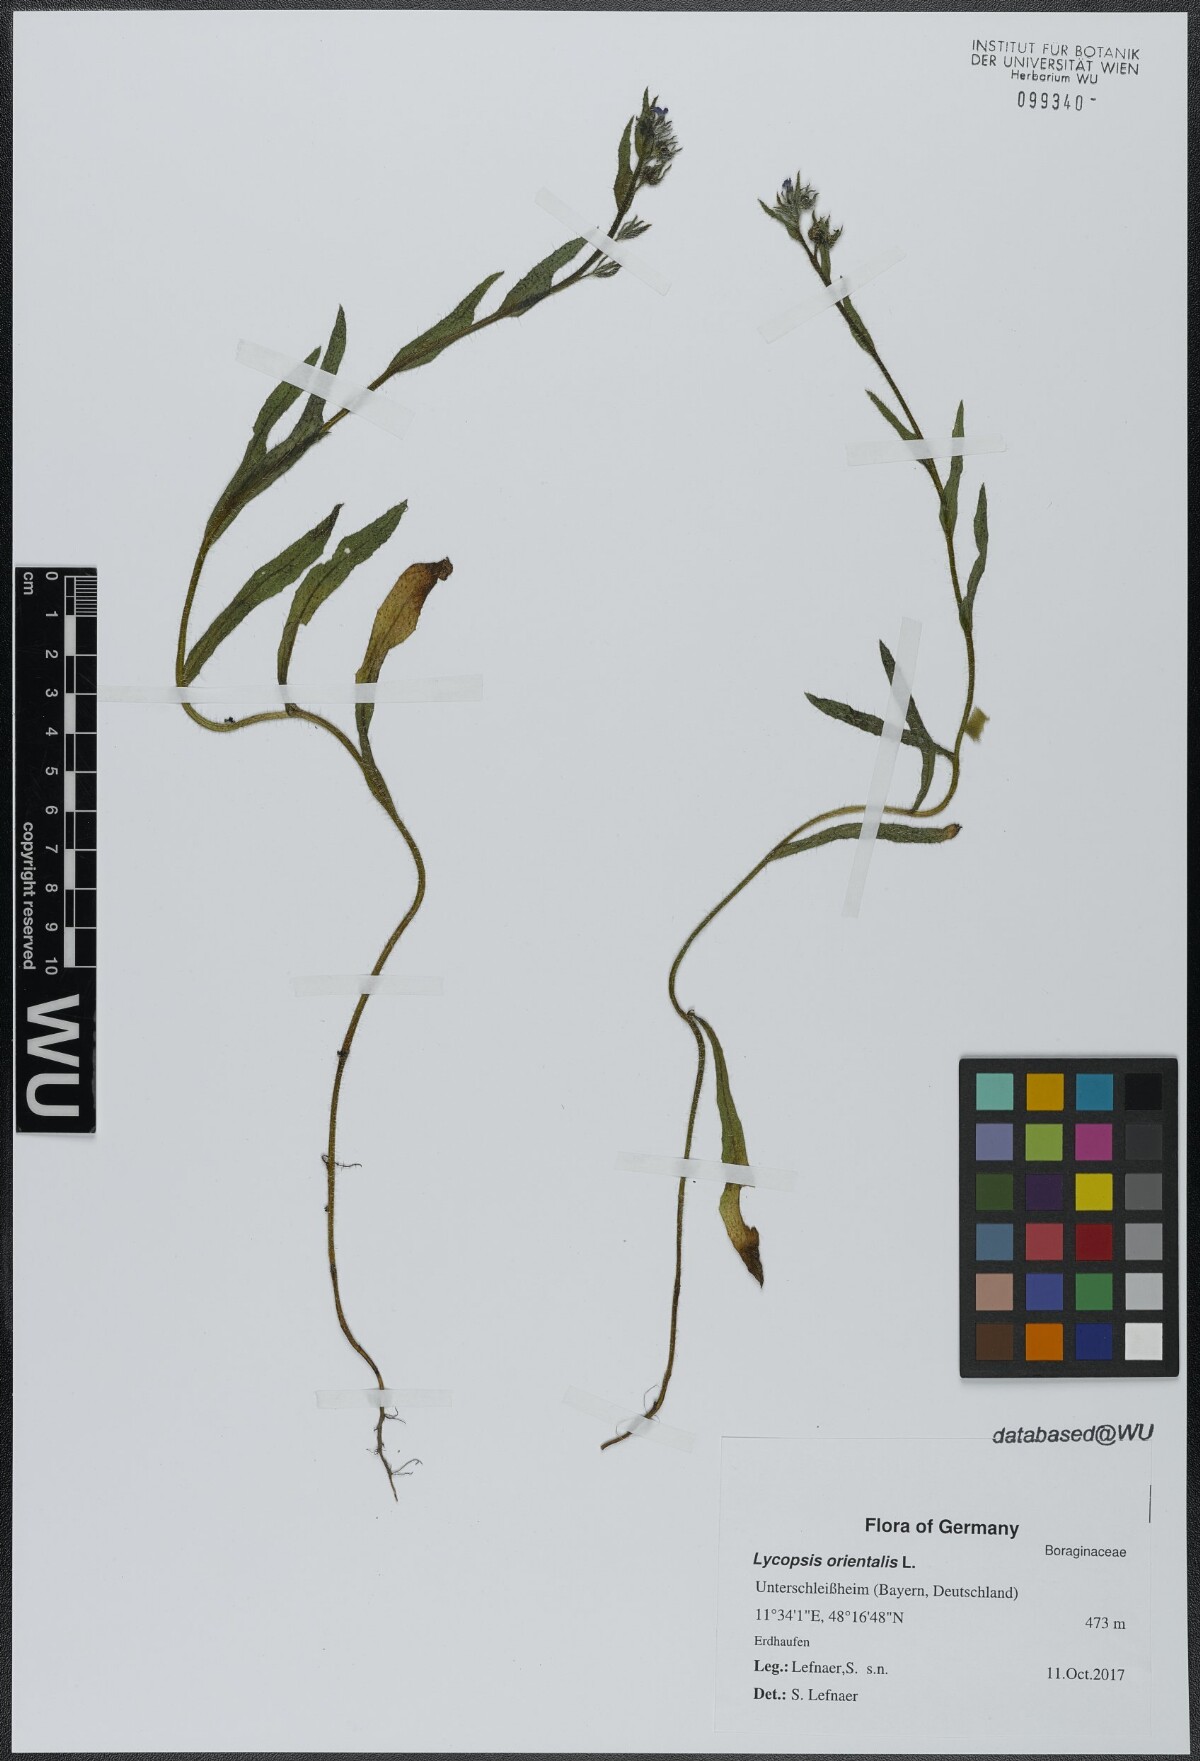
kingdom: Plantae
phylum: Tracheophyta
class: Magnoliopsida
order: Boraginales
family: Boraginaceae
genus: Lycopsis
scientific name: Lycopsis arvensis
